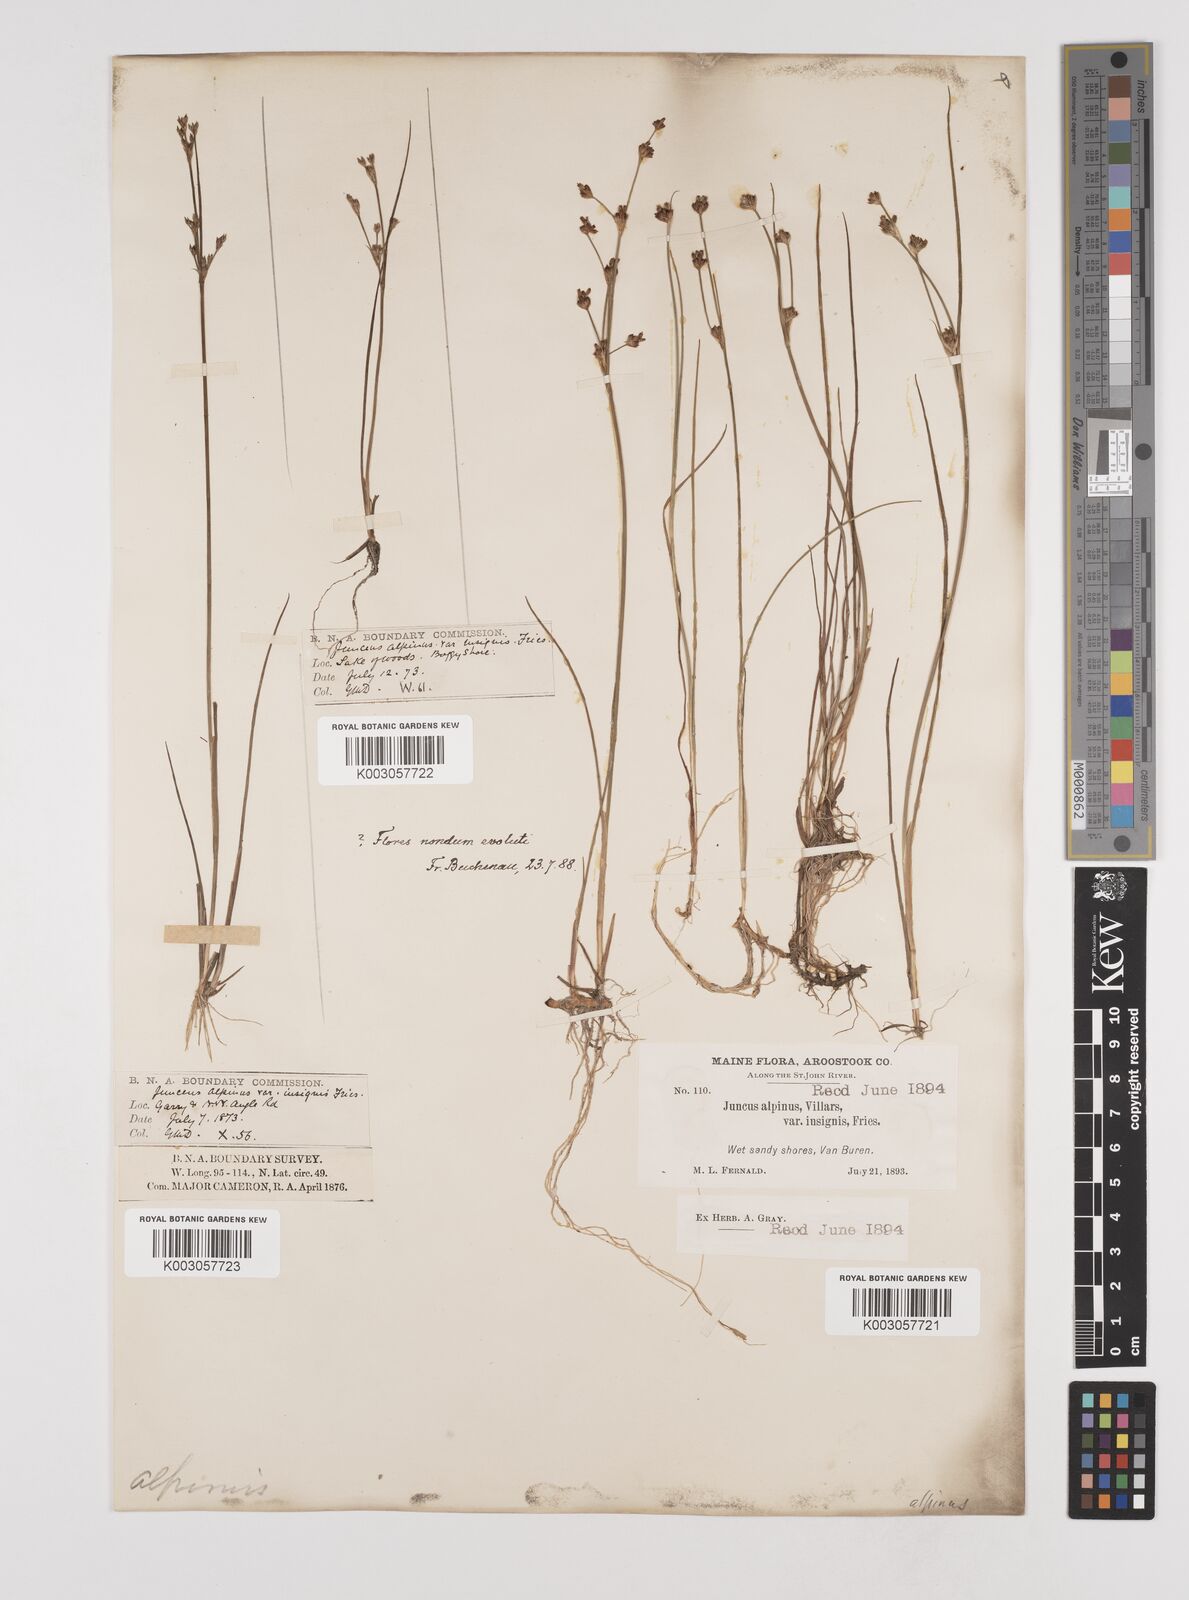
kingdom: Plantae
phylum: Tracheophyta
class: Liliopsida
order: Poales
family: Juncaceae
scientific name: Juncaceae
